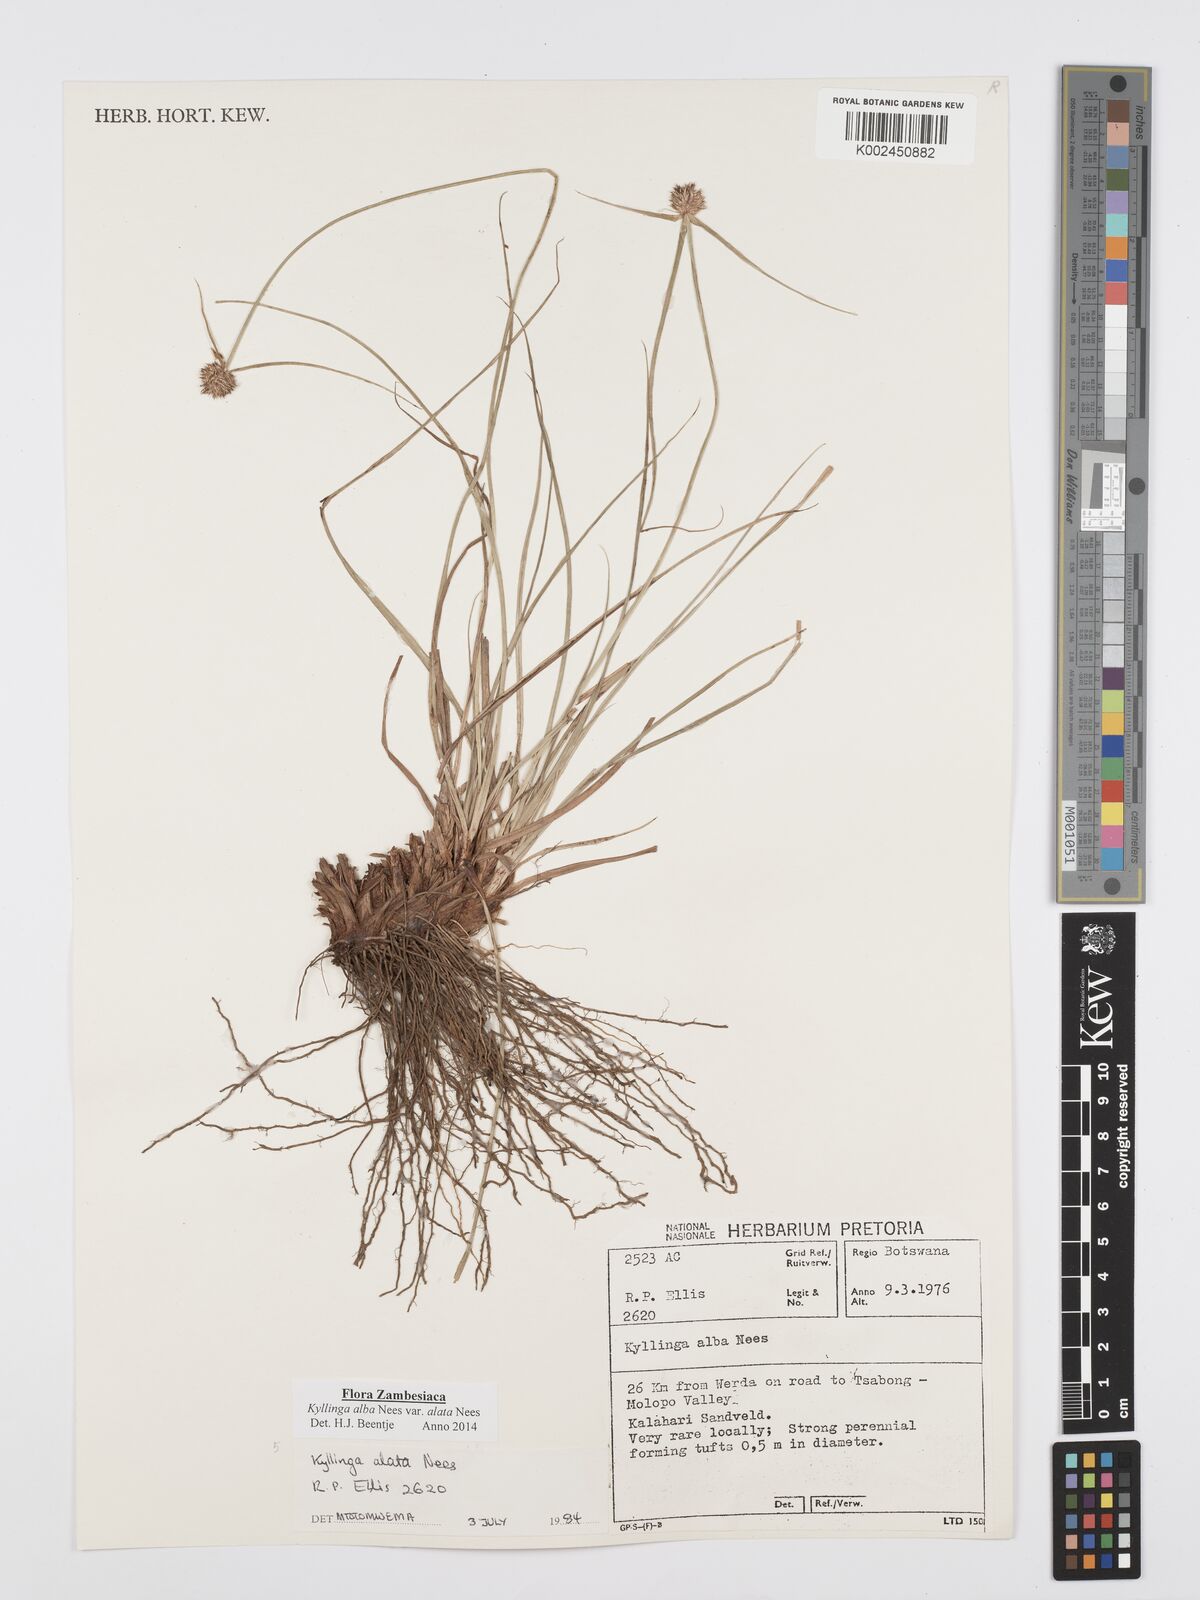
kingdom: Plantae
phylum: Tracheophyta
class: Liliopsida
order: Poales
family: Cyperaceae
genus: Cyperus
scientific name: Cyperus alatus
